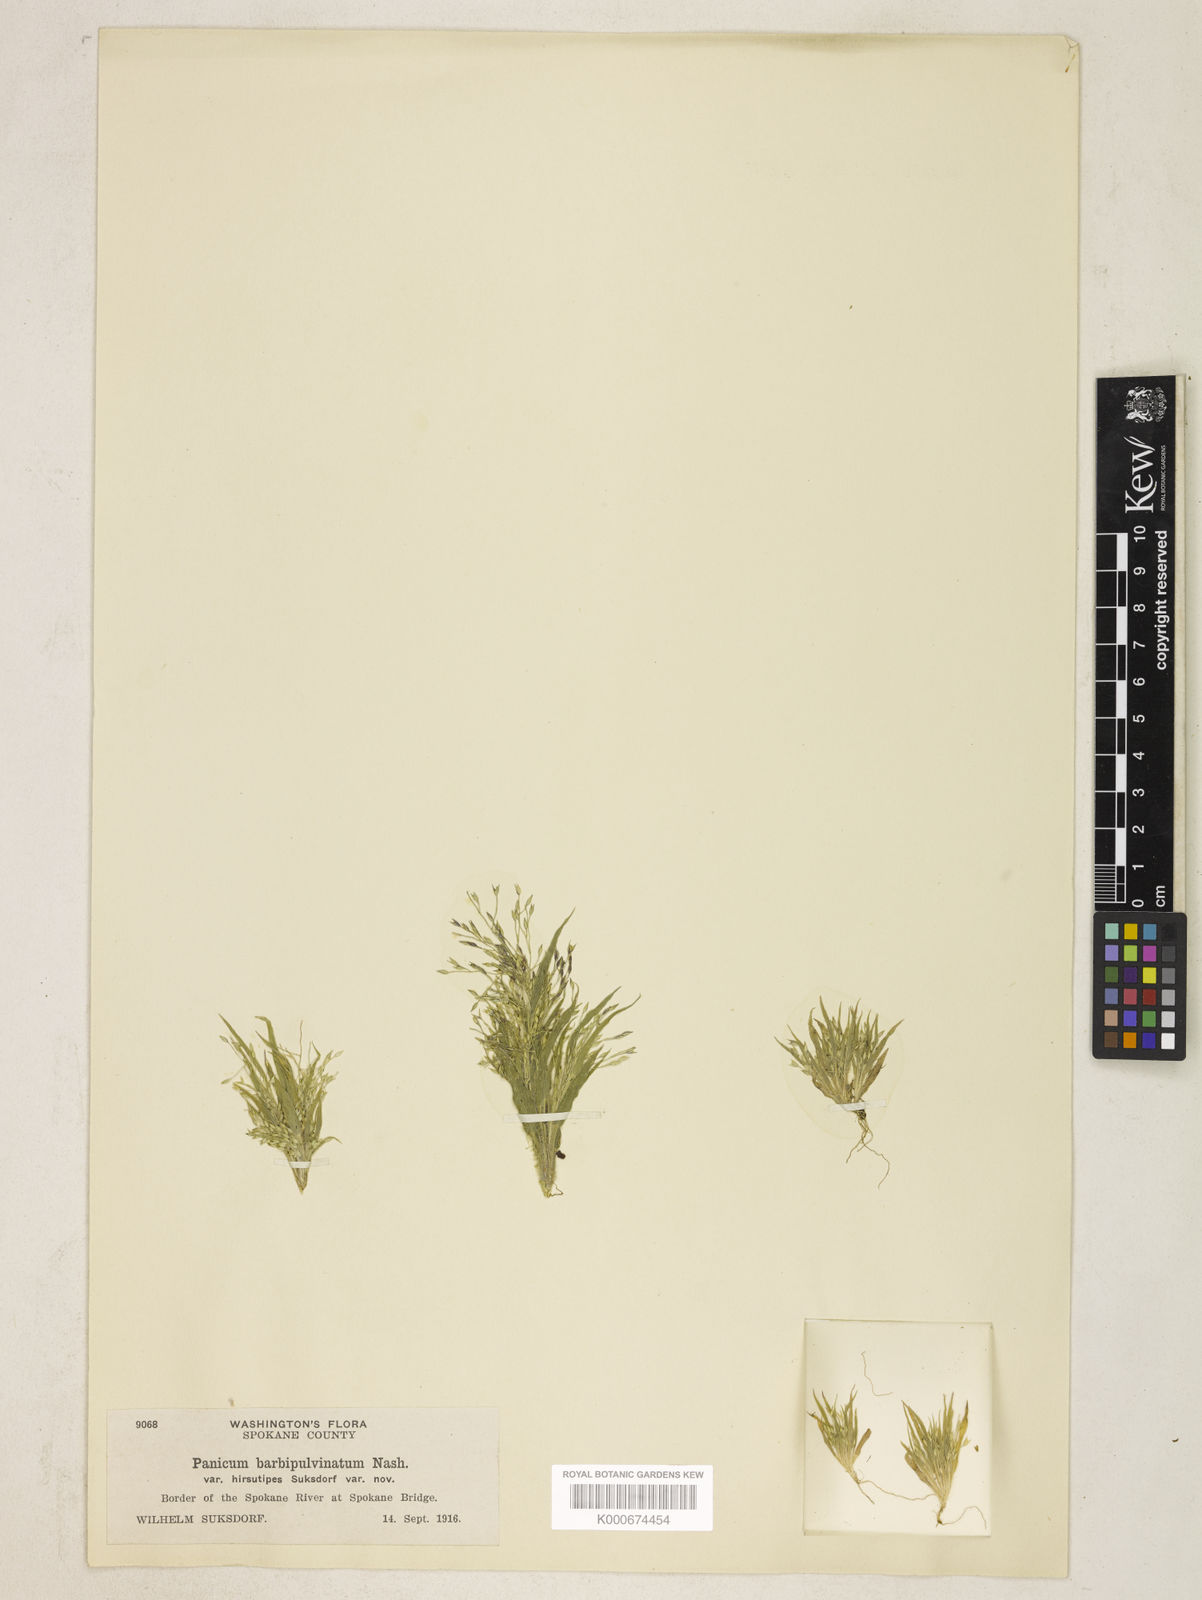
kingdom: Plantae
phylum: Tracheophyta
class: Liliopsida
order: Poales
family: Poaceae
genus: Panicum
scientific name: Panicum capillare
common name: Witch-grass
